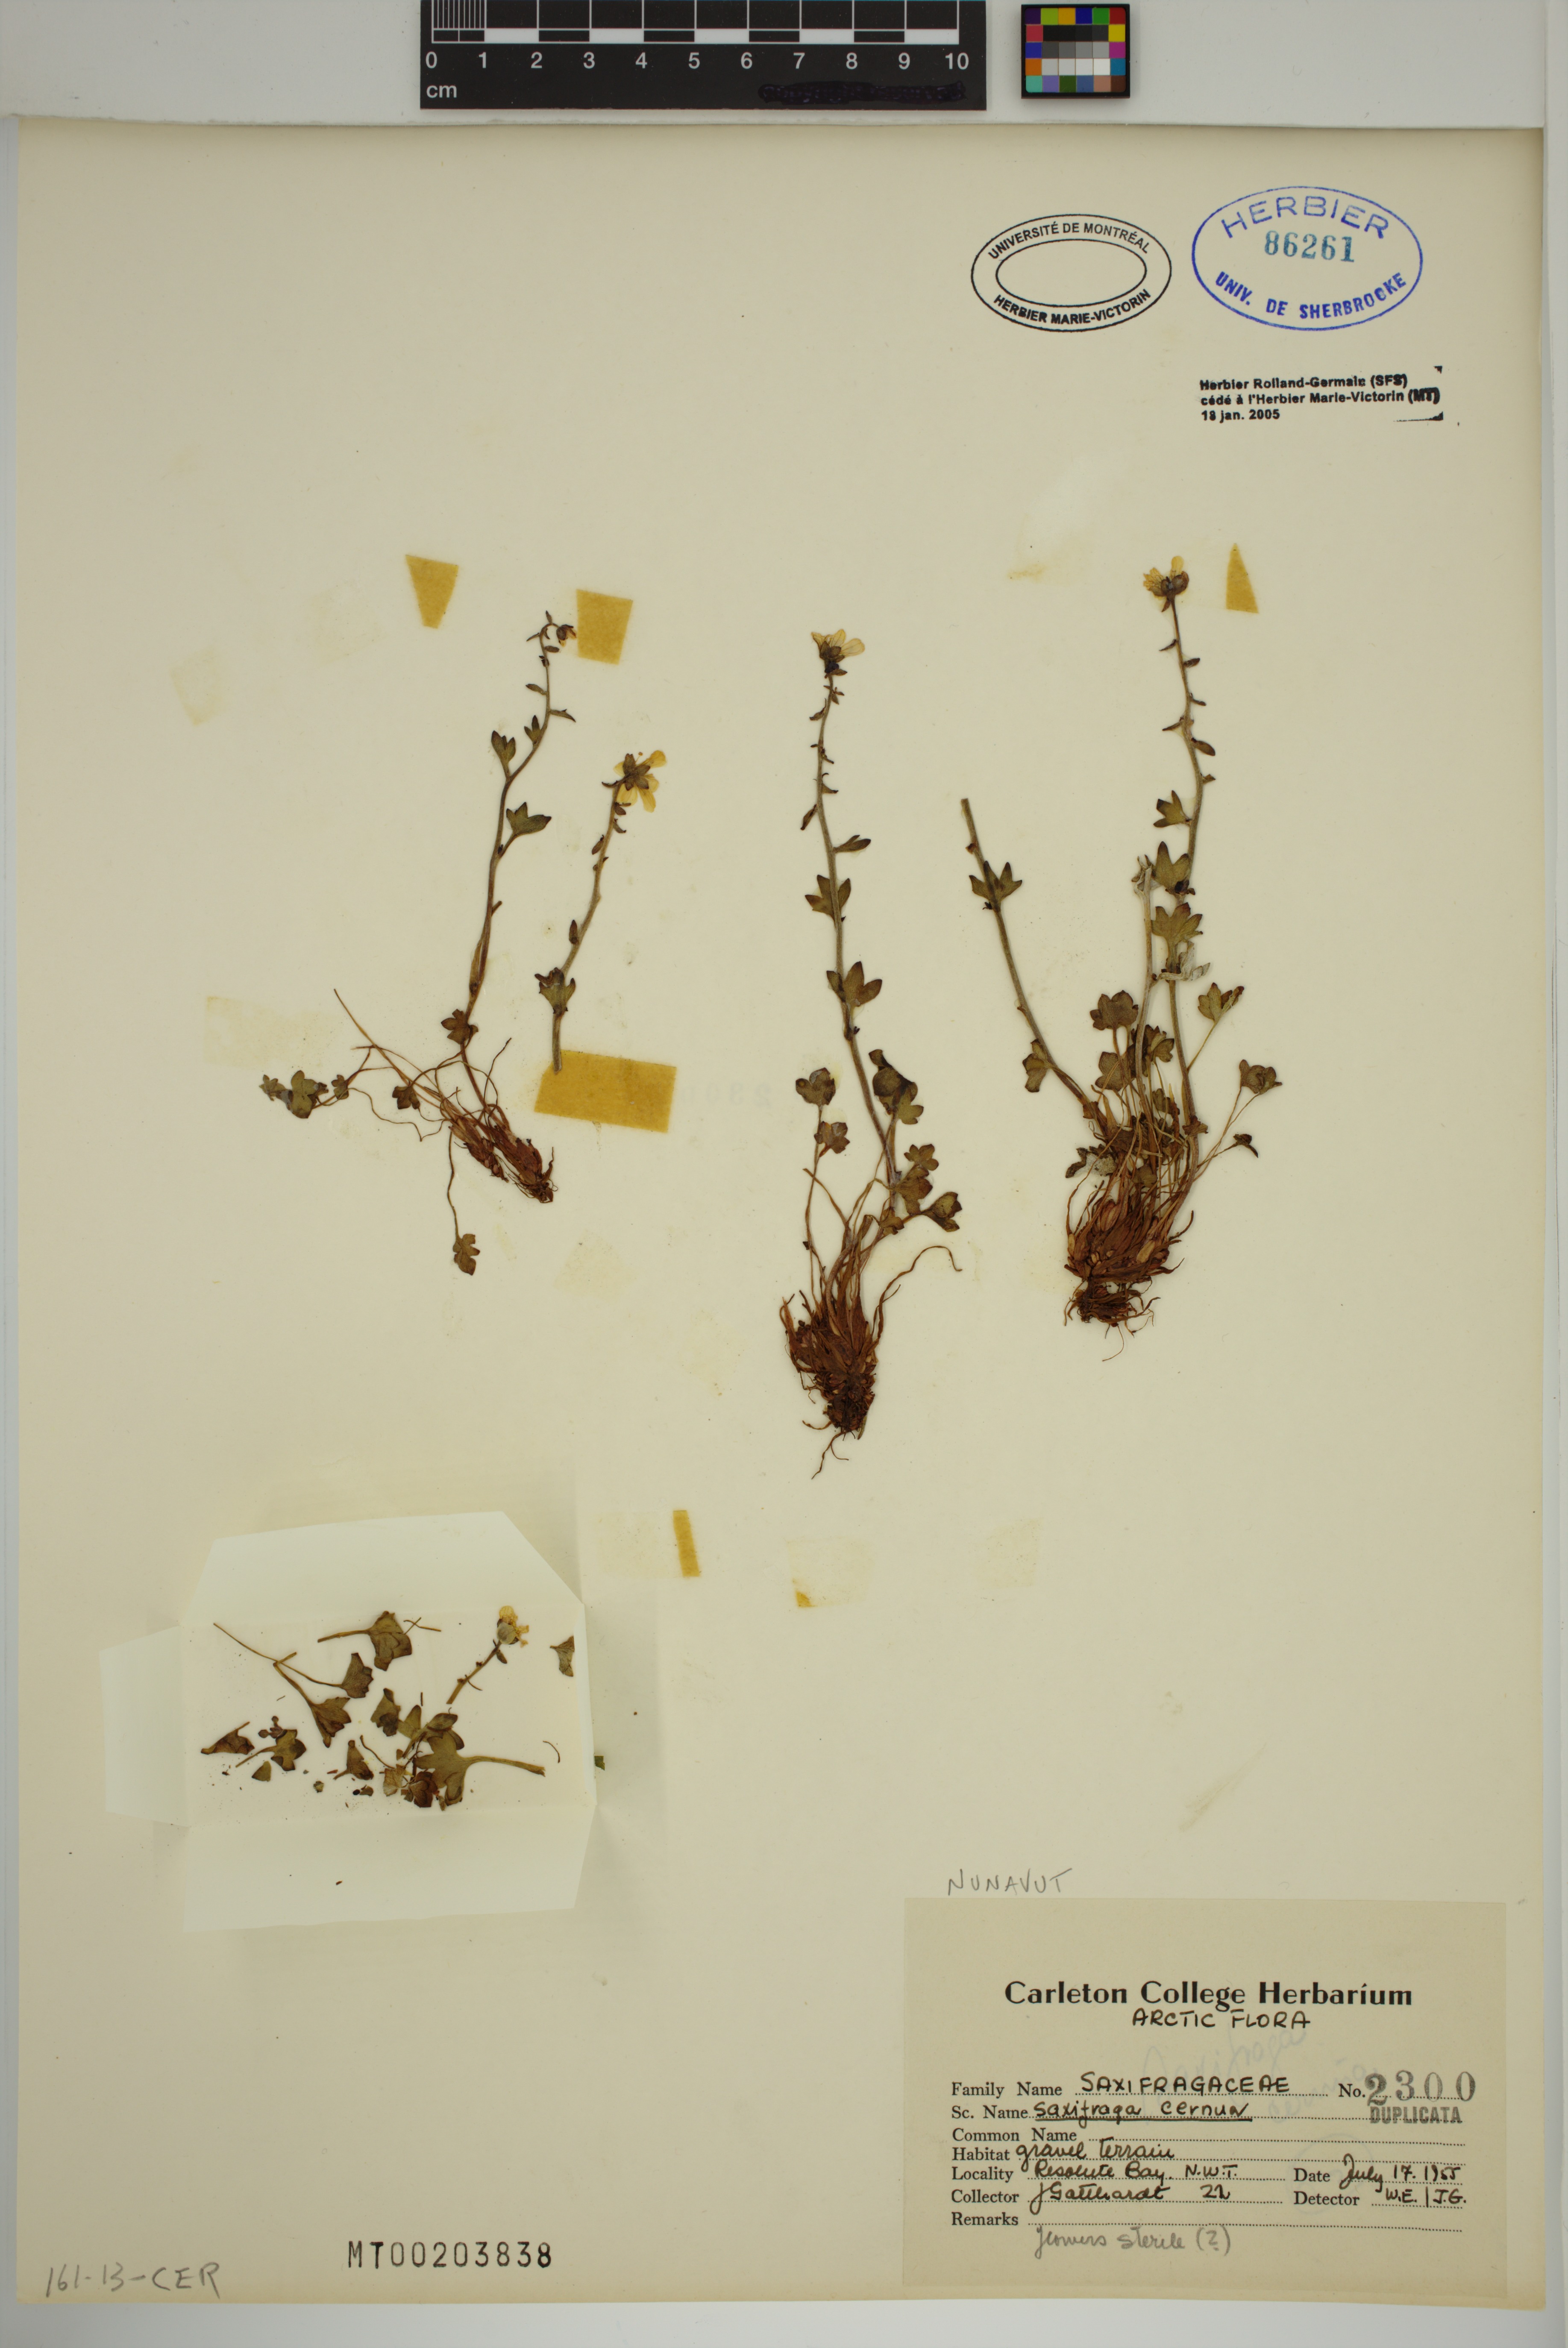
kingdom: Plantae
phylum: Tracheophyta
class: Magnoliopsida
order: Saxifragales
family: Saxifragaceae
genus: Saxifraga
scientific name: Saxifraga cernua
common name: Drooping saxifrage
